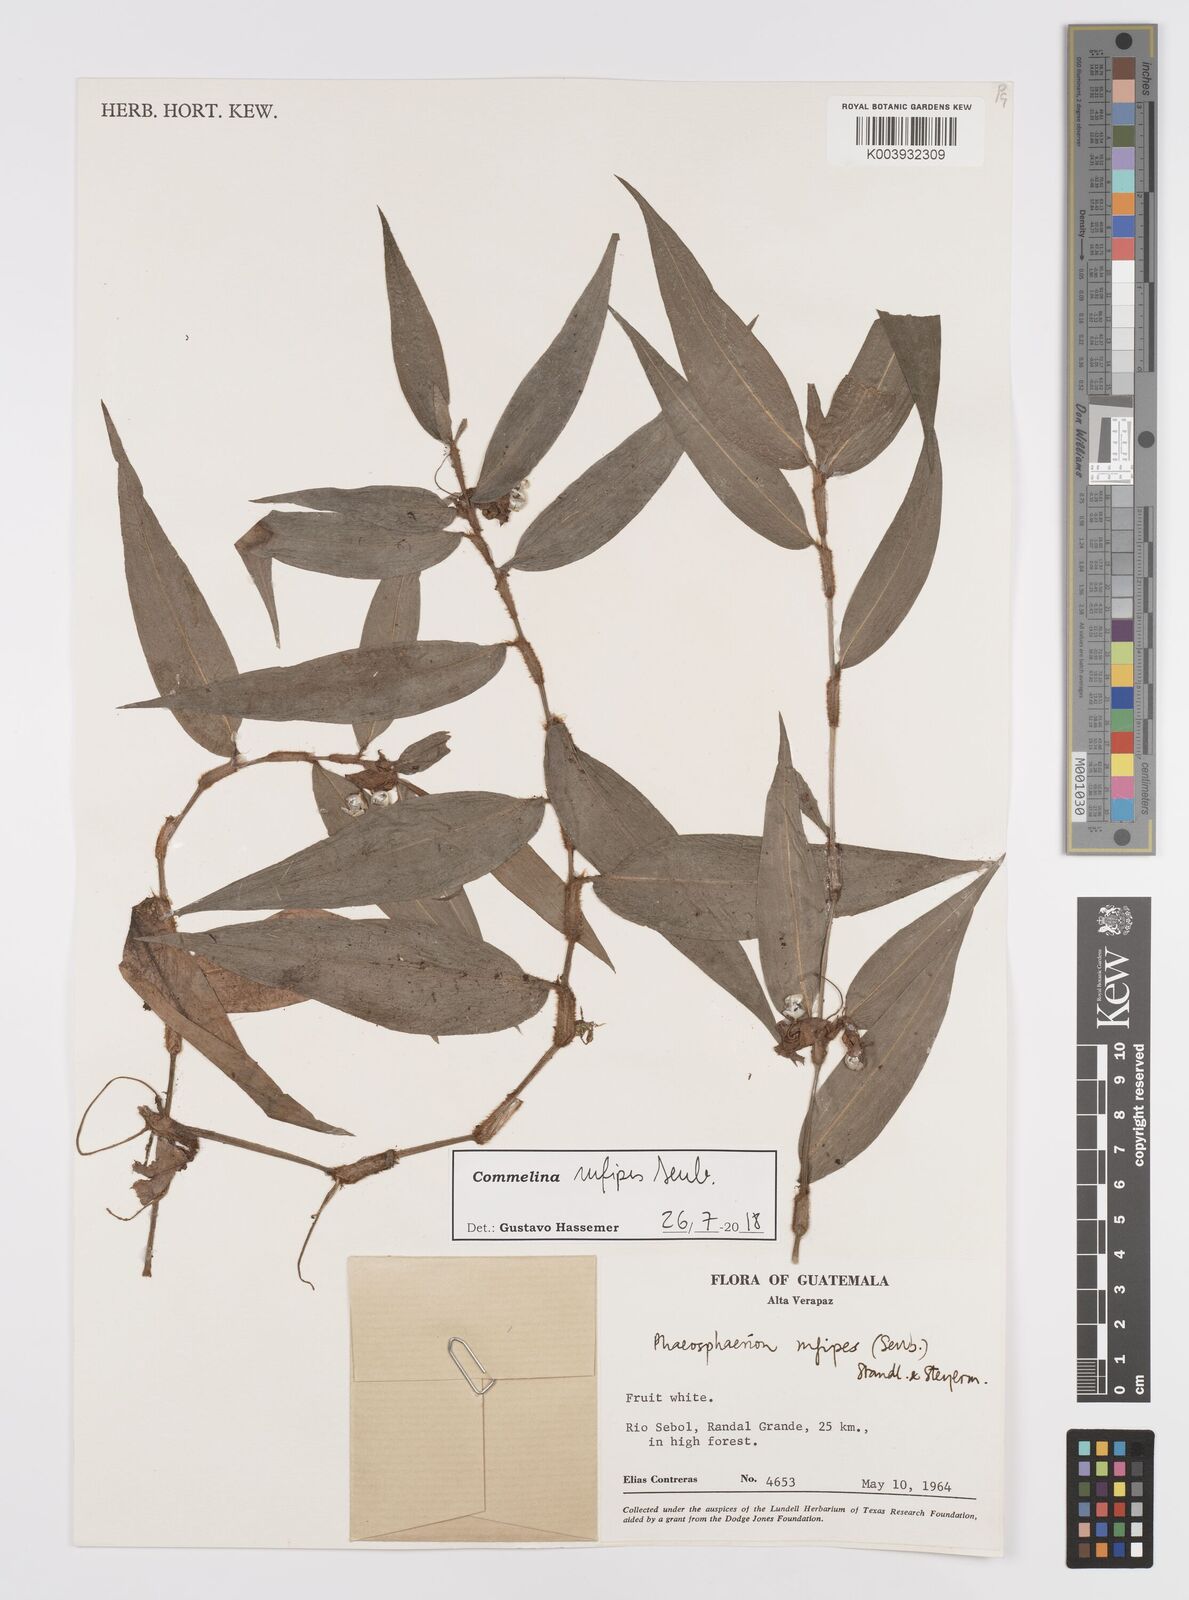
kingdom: Plantae
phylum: Tracheophyta
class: Liliopsida
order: Commelinales
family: Commelinaceae
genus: Commelina
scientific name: Commelina rufipes
